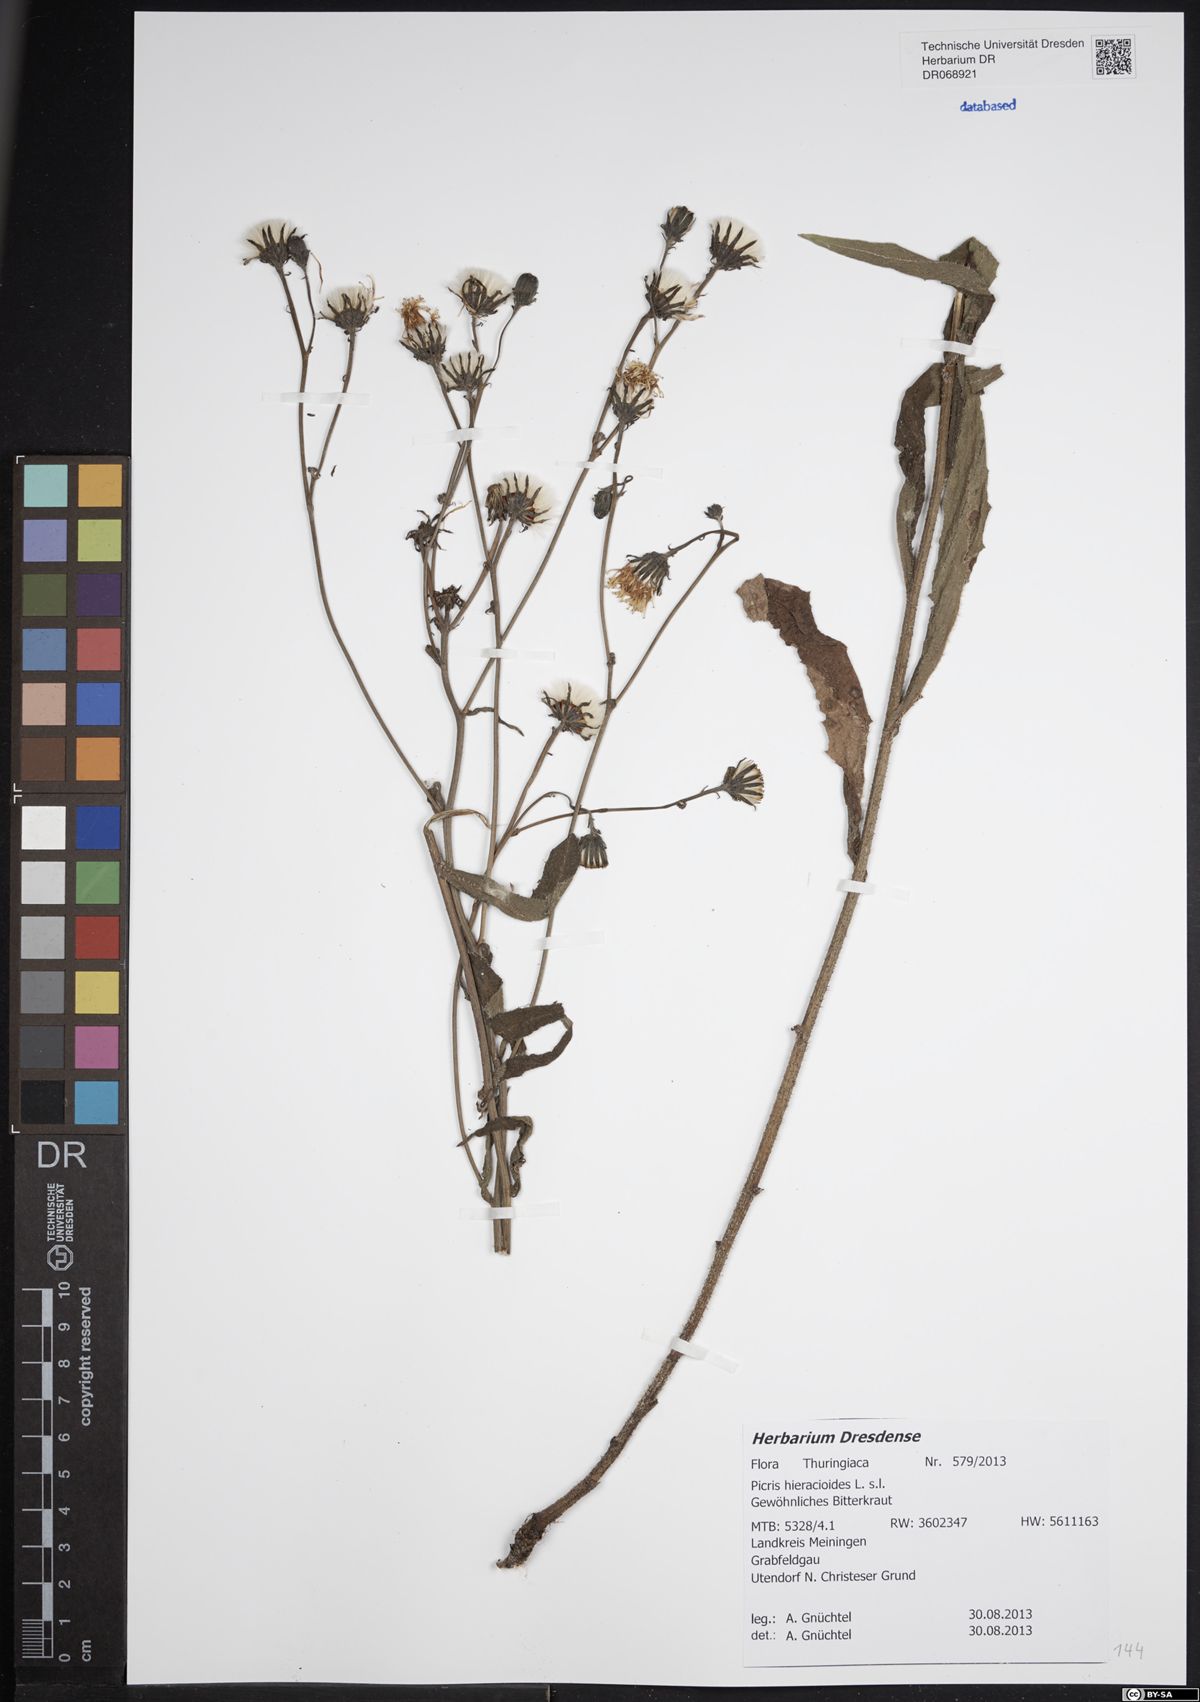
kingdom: Plantae
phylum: Tracheophyta
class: Magnoliopsida
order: Asterales
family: Asteraceae
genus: Picris
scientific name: Picris hieracioides
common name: Hawkweed oxtongue
